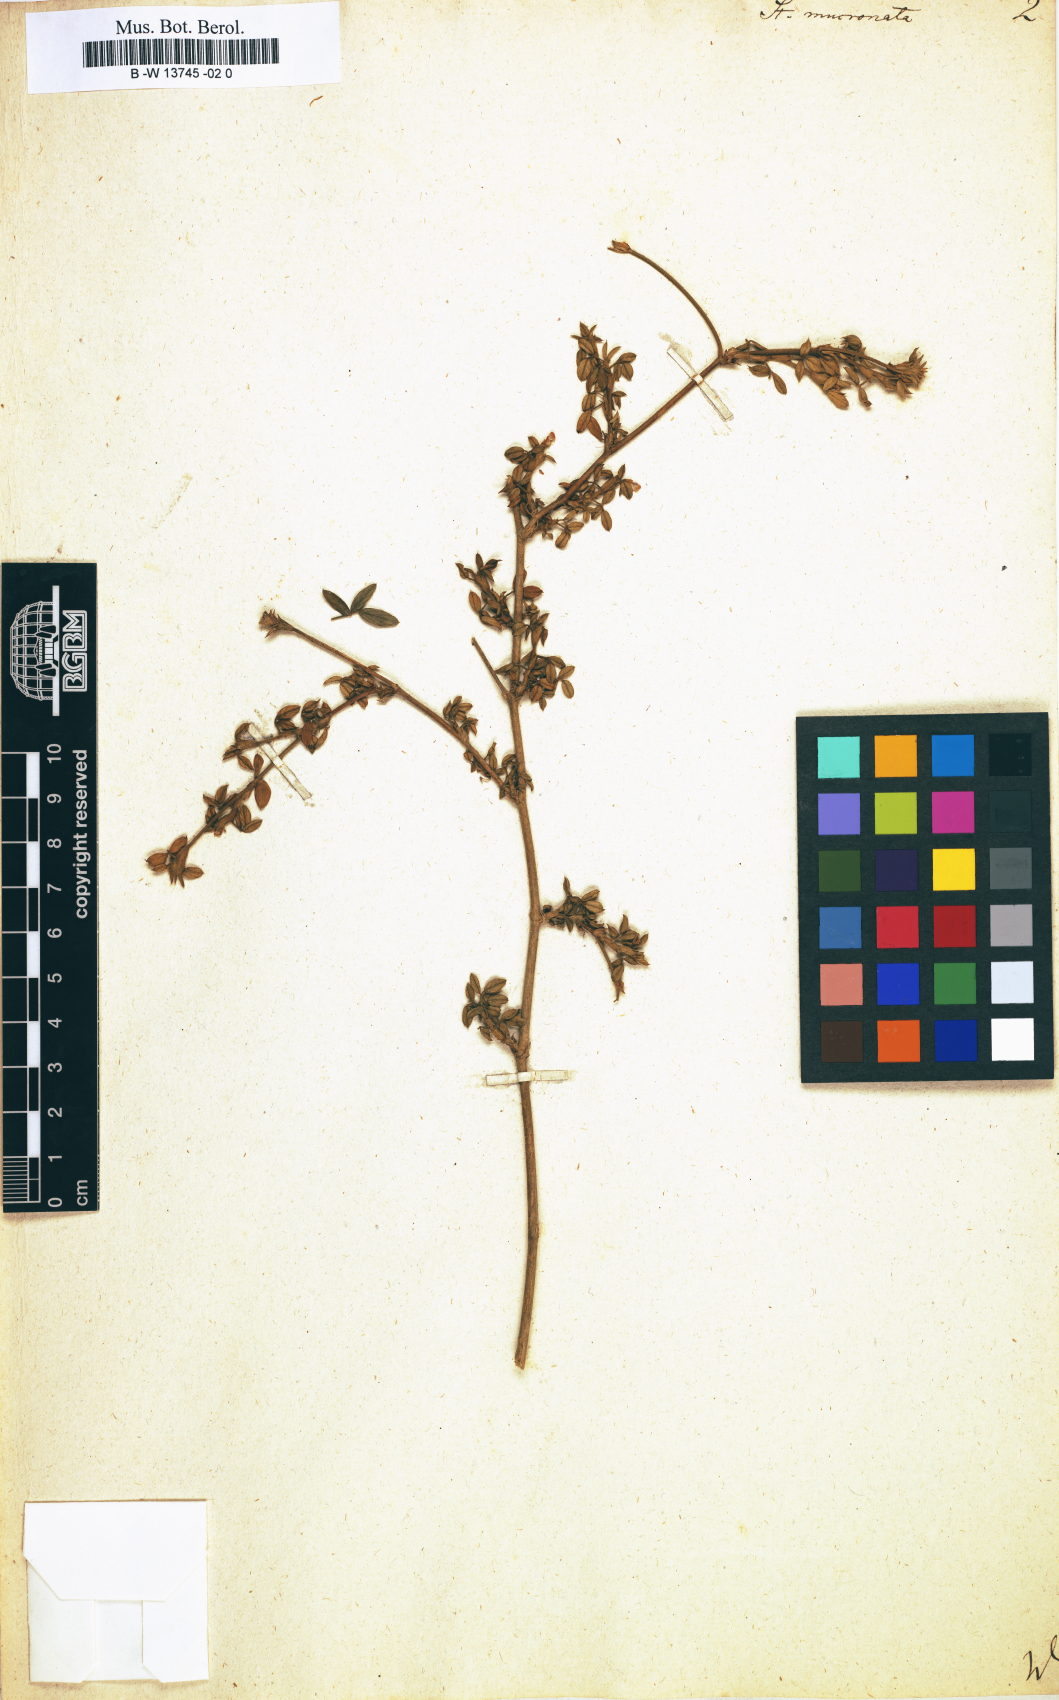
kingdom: Plantae
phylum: Tracheophyta
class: Magnoliopsida
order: Fabales
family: Fabaceae
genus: Stylosanthes
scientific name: Stylosanthes fruticosa
